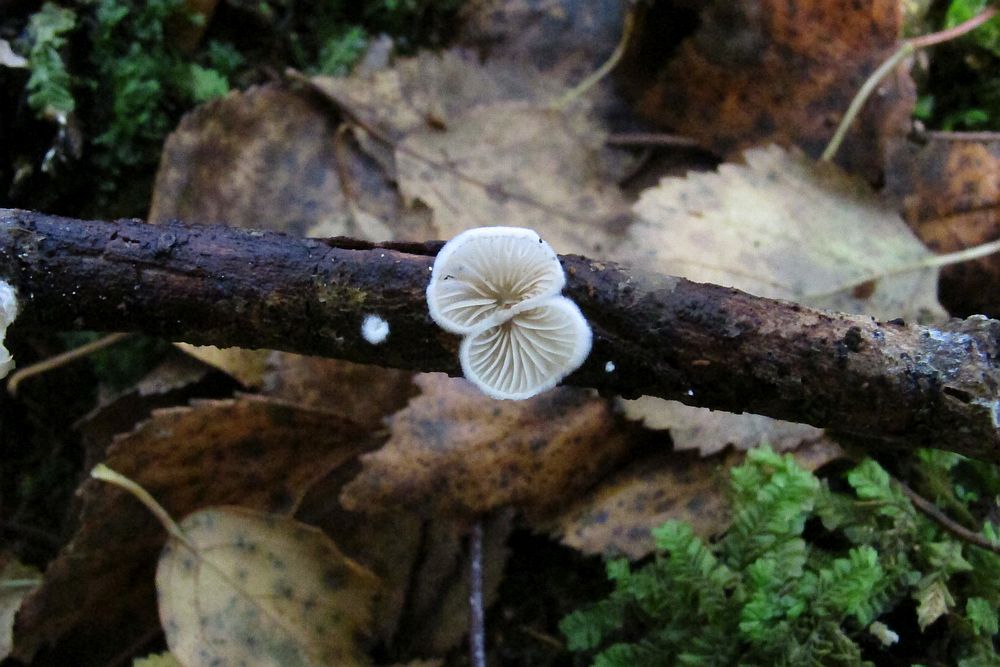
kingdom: Fungi
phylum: Basidiomycota
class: Agaricomycetes
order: Agaricales
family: Crepidotaceae
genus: Crepidotus
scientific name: Crepidotus cesatii
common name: almindelig muslingesvamp
